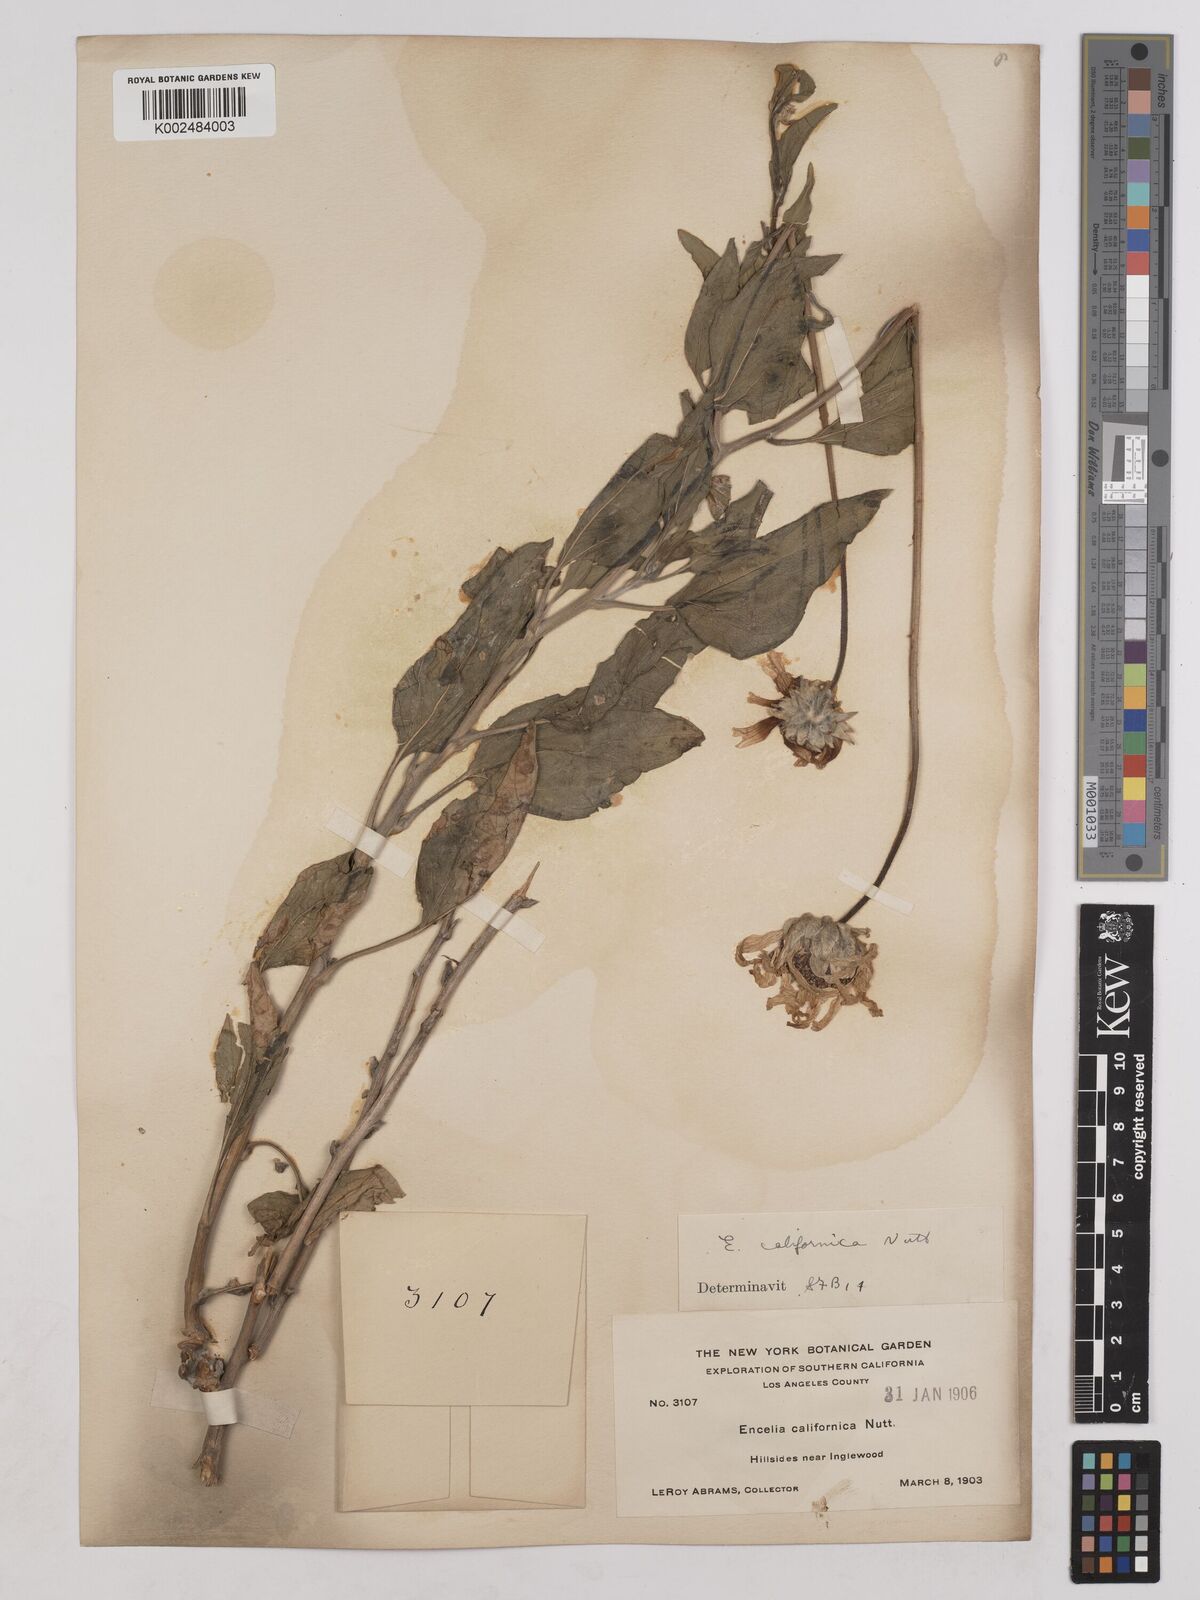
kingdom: Plantae
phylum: Tracheophyta
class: Magnoliopsida
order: Asterales
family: Asteraceae
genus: Encelia
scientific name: Encelia californica
